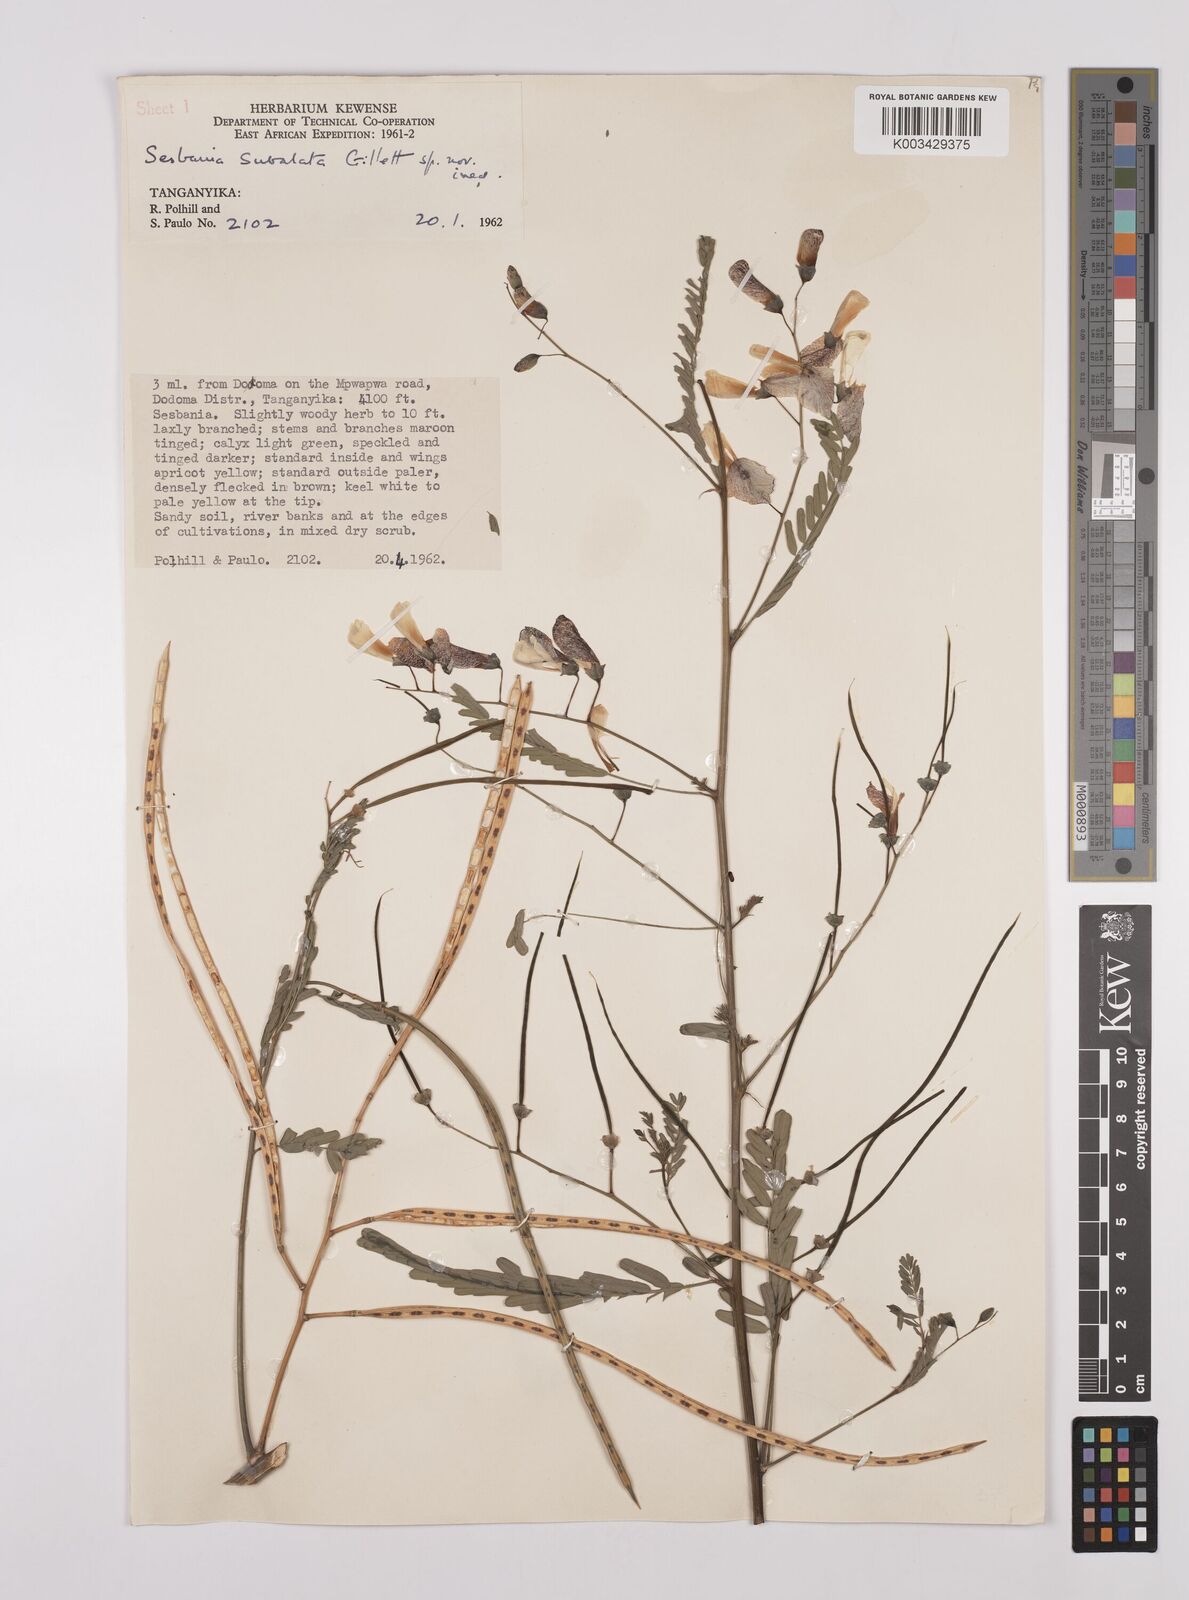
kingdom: Plantae
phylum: Tracheophyta
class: Magnoliopsida
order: Fabales
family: Fabaceae
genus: Sesbania
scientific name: Sesbania subalata
